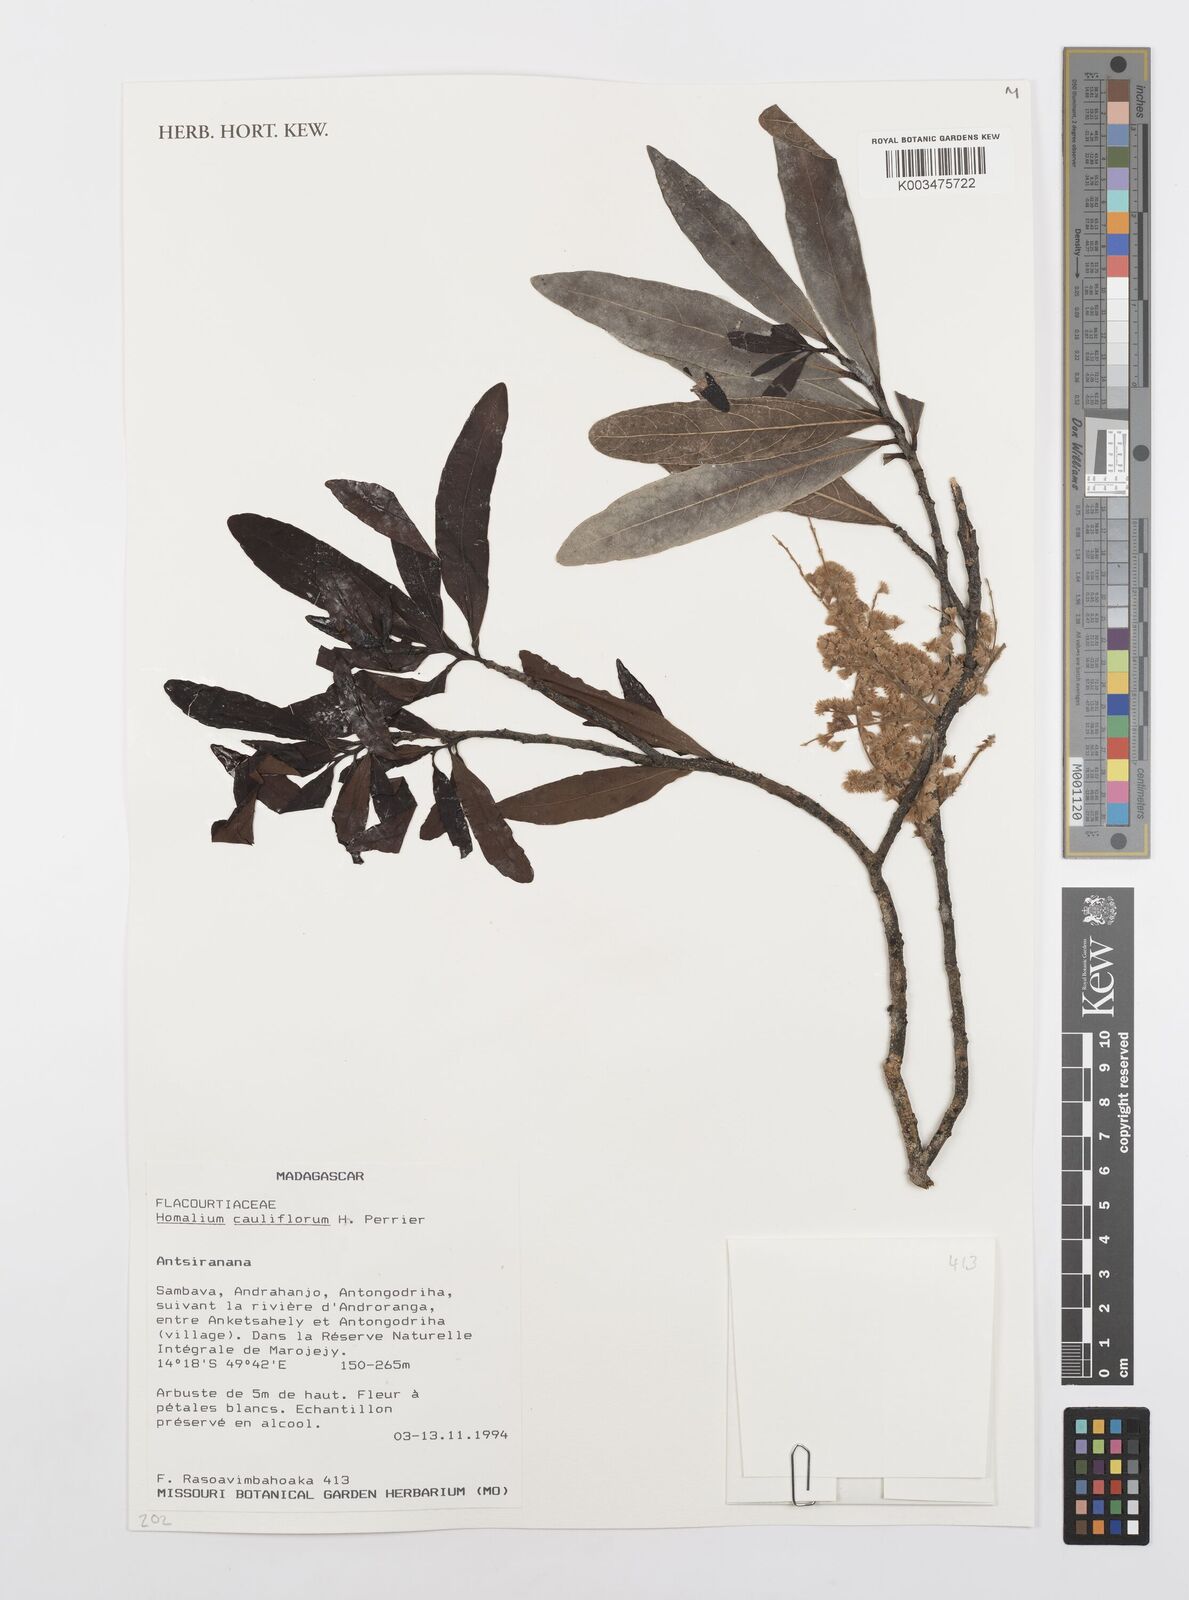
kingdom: Plantae
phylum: Tracheophyta
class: Magnoliopsida
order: Malpighiales
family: Salicaceae
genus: Homalium
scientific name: Homalium cauliflorum
